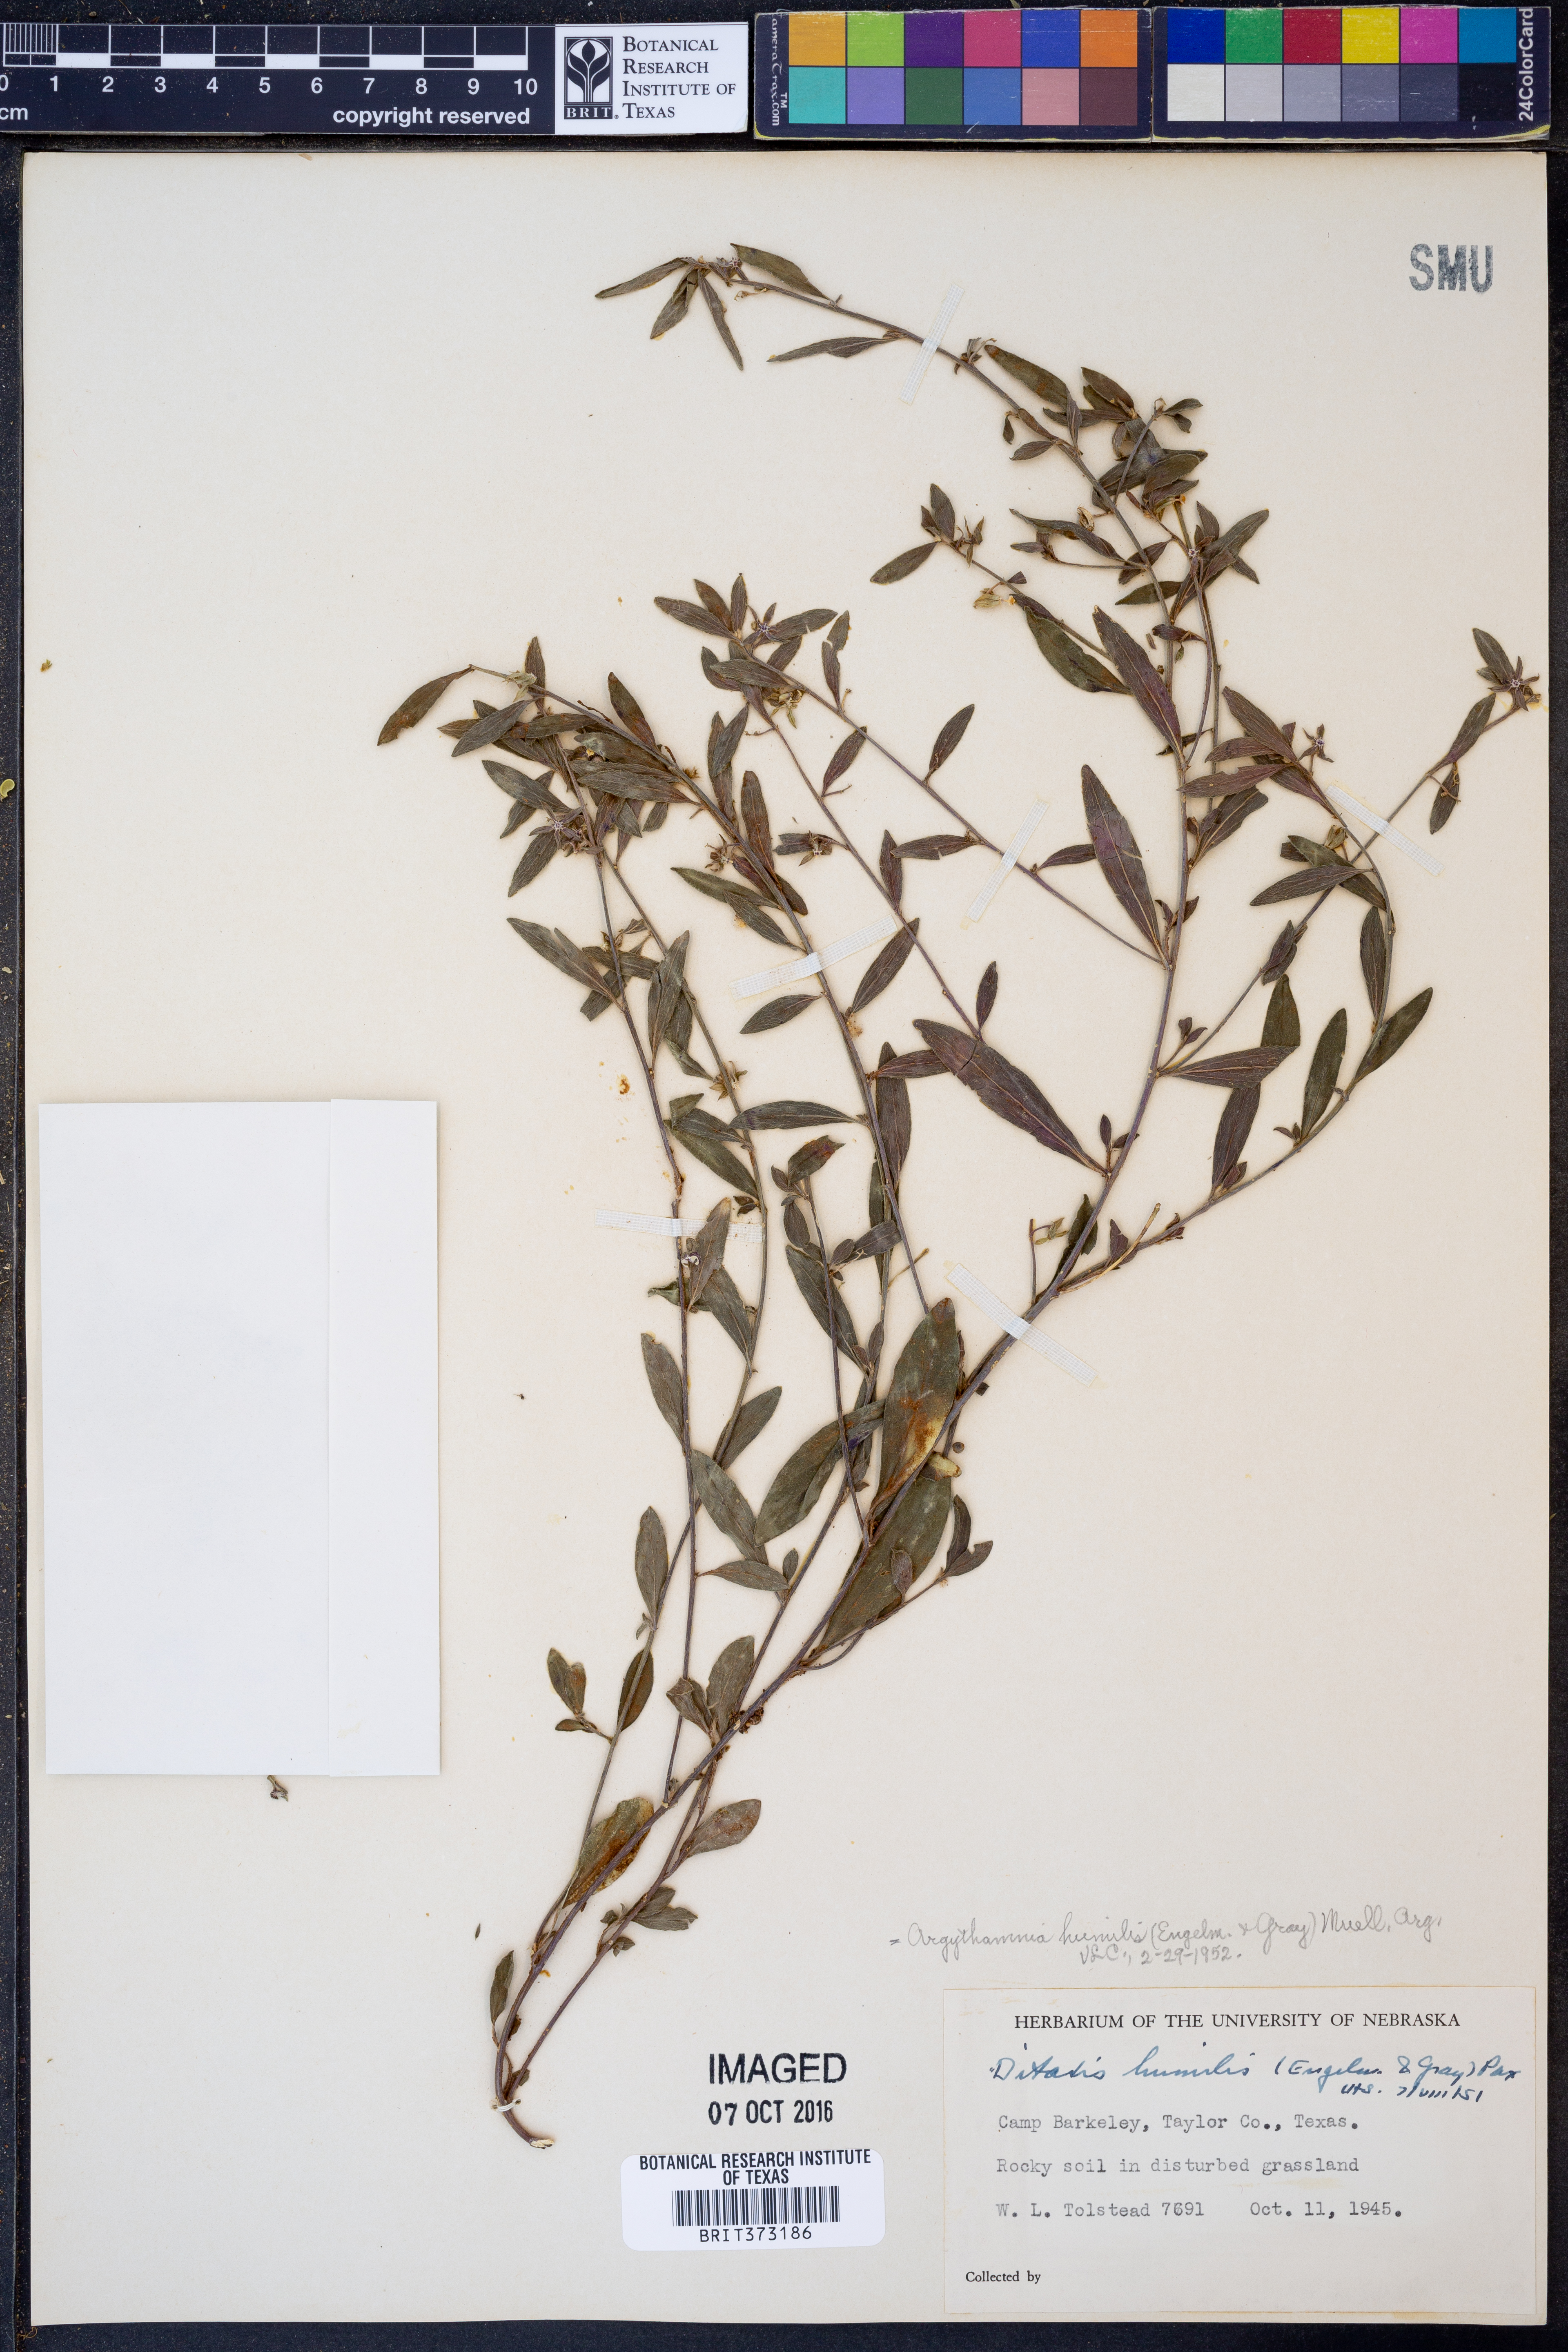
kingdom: Plantae
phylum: Tracheophyta
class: Magnoliopsida
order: Malpighiales
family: Euphorbiaceae
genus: Ditaxis
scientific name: Ditaxis humilis
